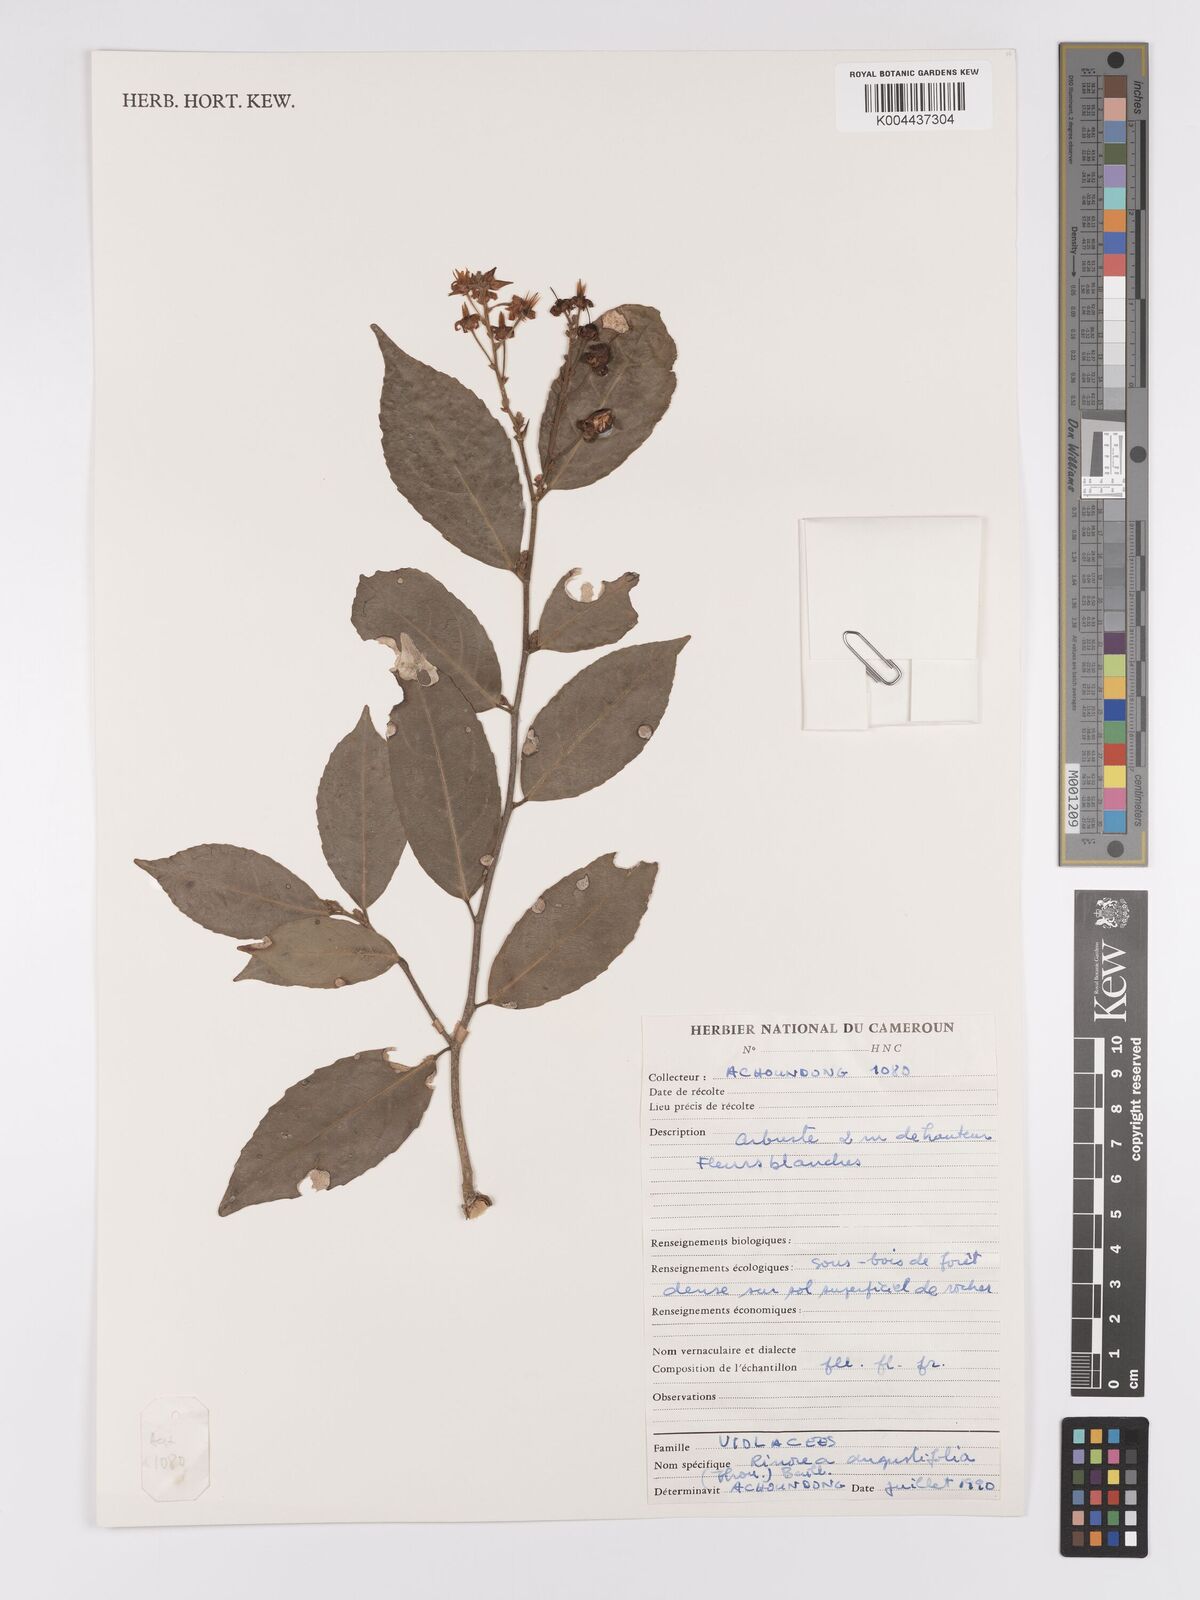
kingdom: Plantae
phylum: Tracheophyta
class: Magnoliopsida
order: Malpighiales
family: Violaceae
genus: Rinorea
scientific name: Rinorea angustifolia
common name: White violet-bush
